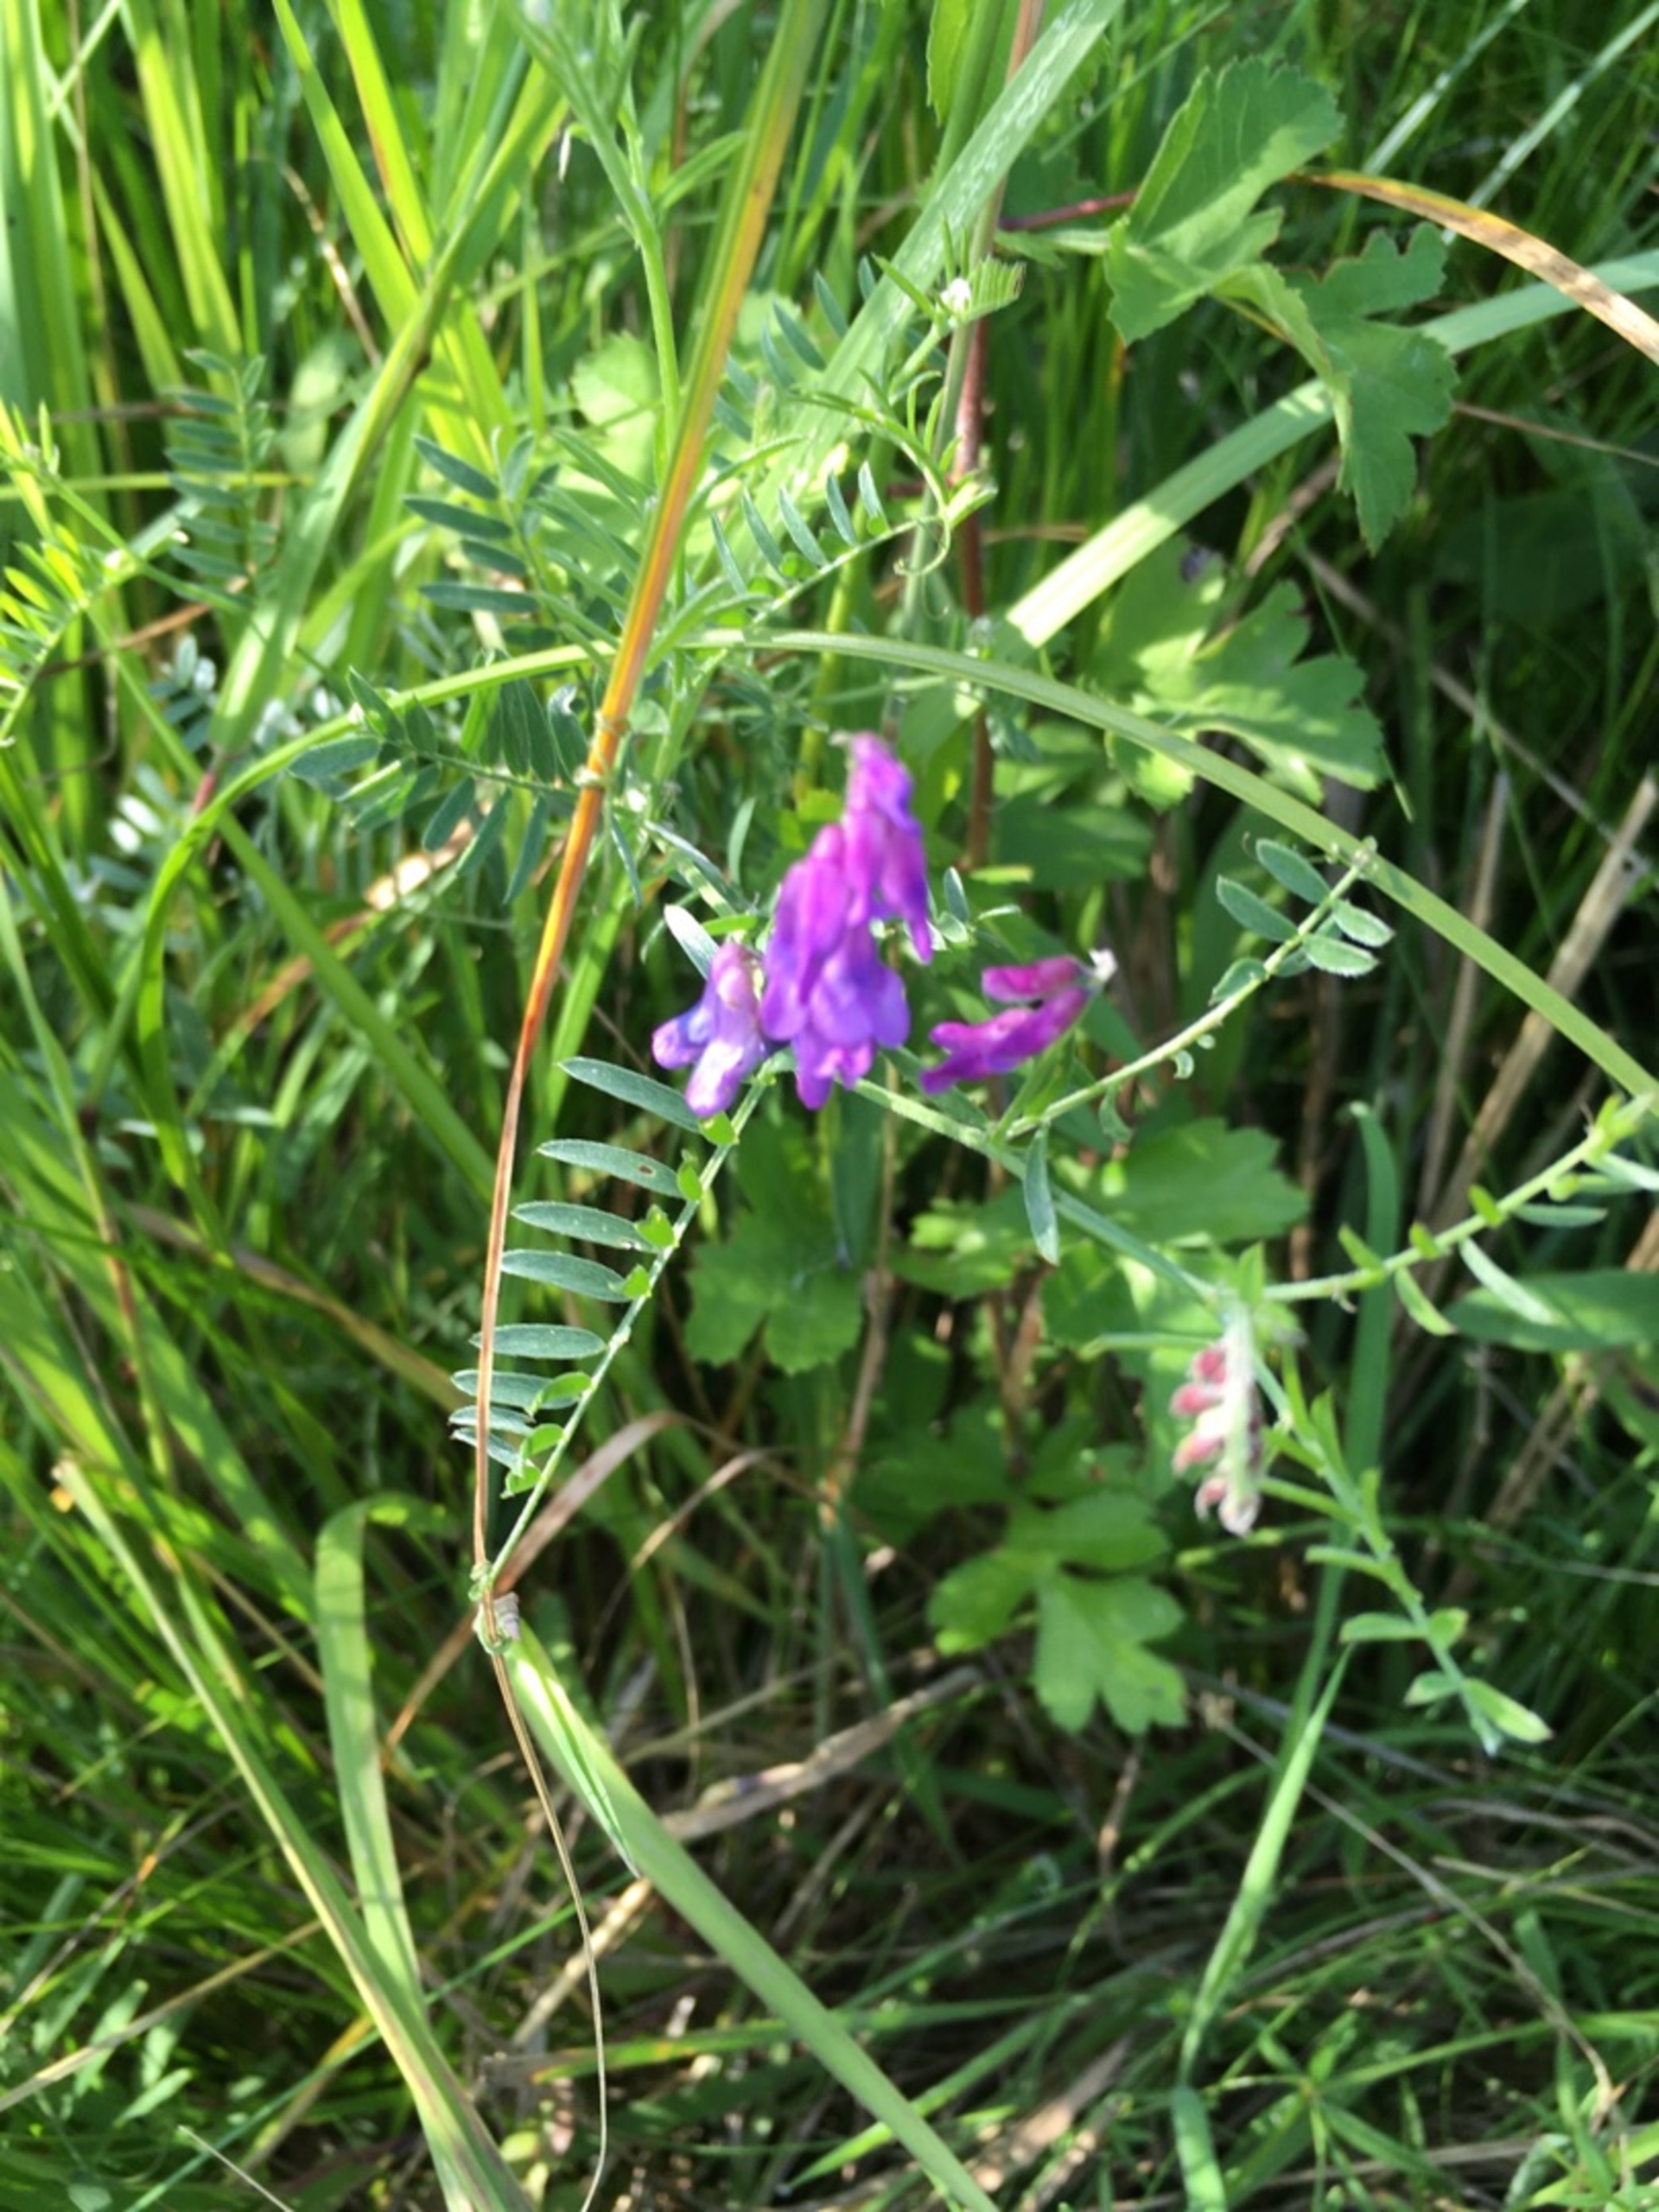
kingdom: Plantae
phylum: Tracheophyta
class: Magnoliopsida
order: Fabales
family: Fabaceae
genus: Vicia
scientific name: Vicia cracca
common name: Muse-vikke
